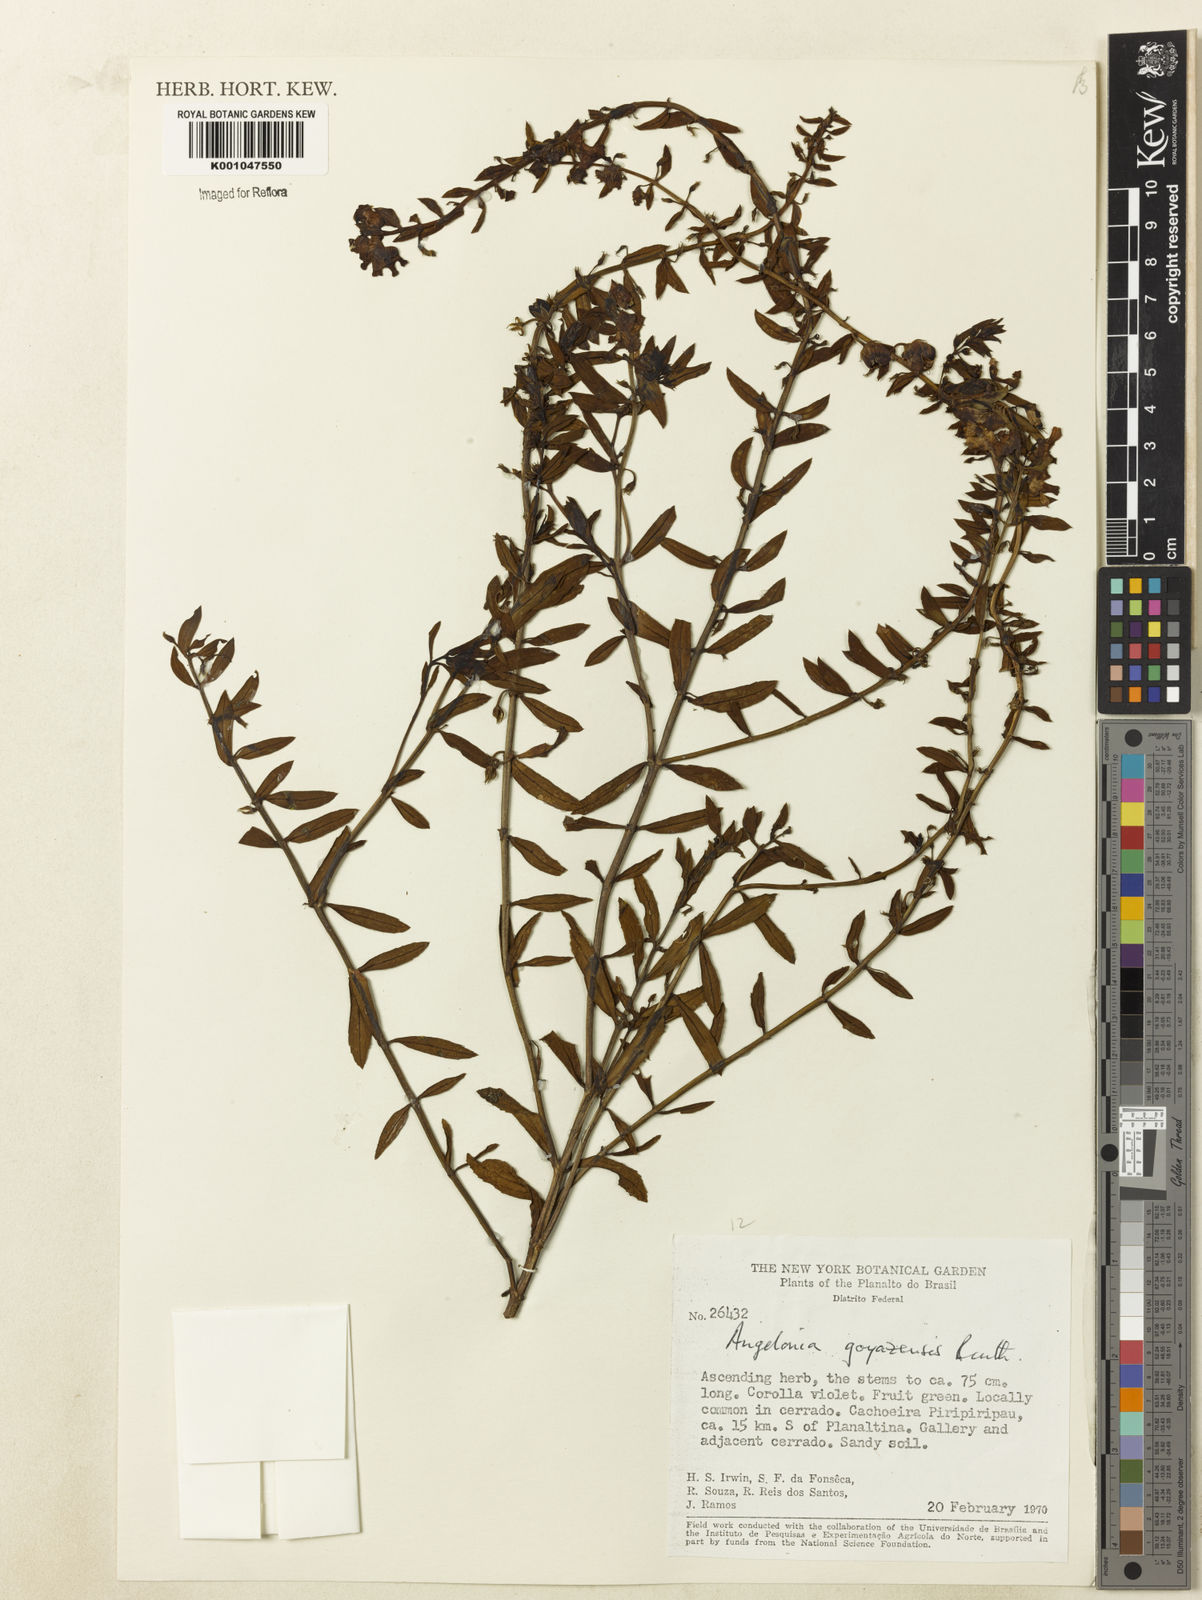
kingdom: Plantae
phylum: Tracheophyta
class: Magnoliopsida
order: Lamiales
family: Plantaginaceae
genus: Angelonia
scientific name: Angelonia goyazensis
